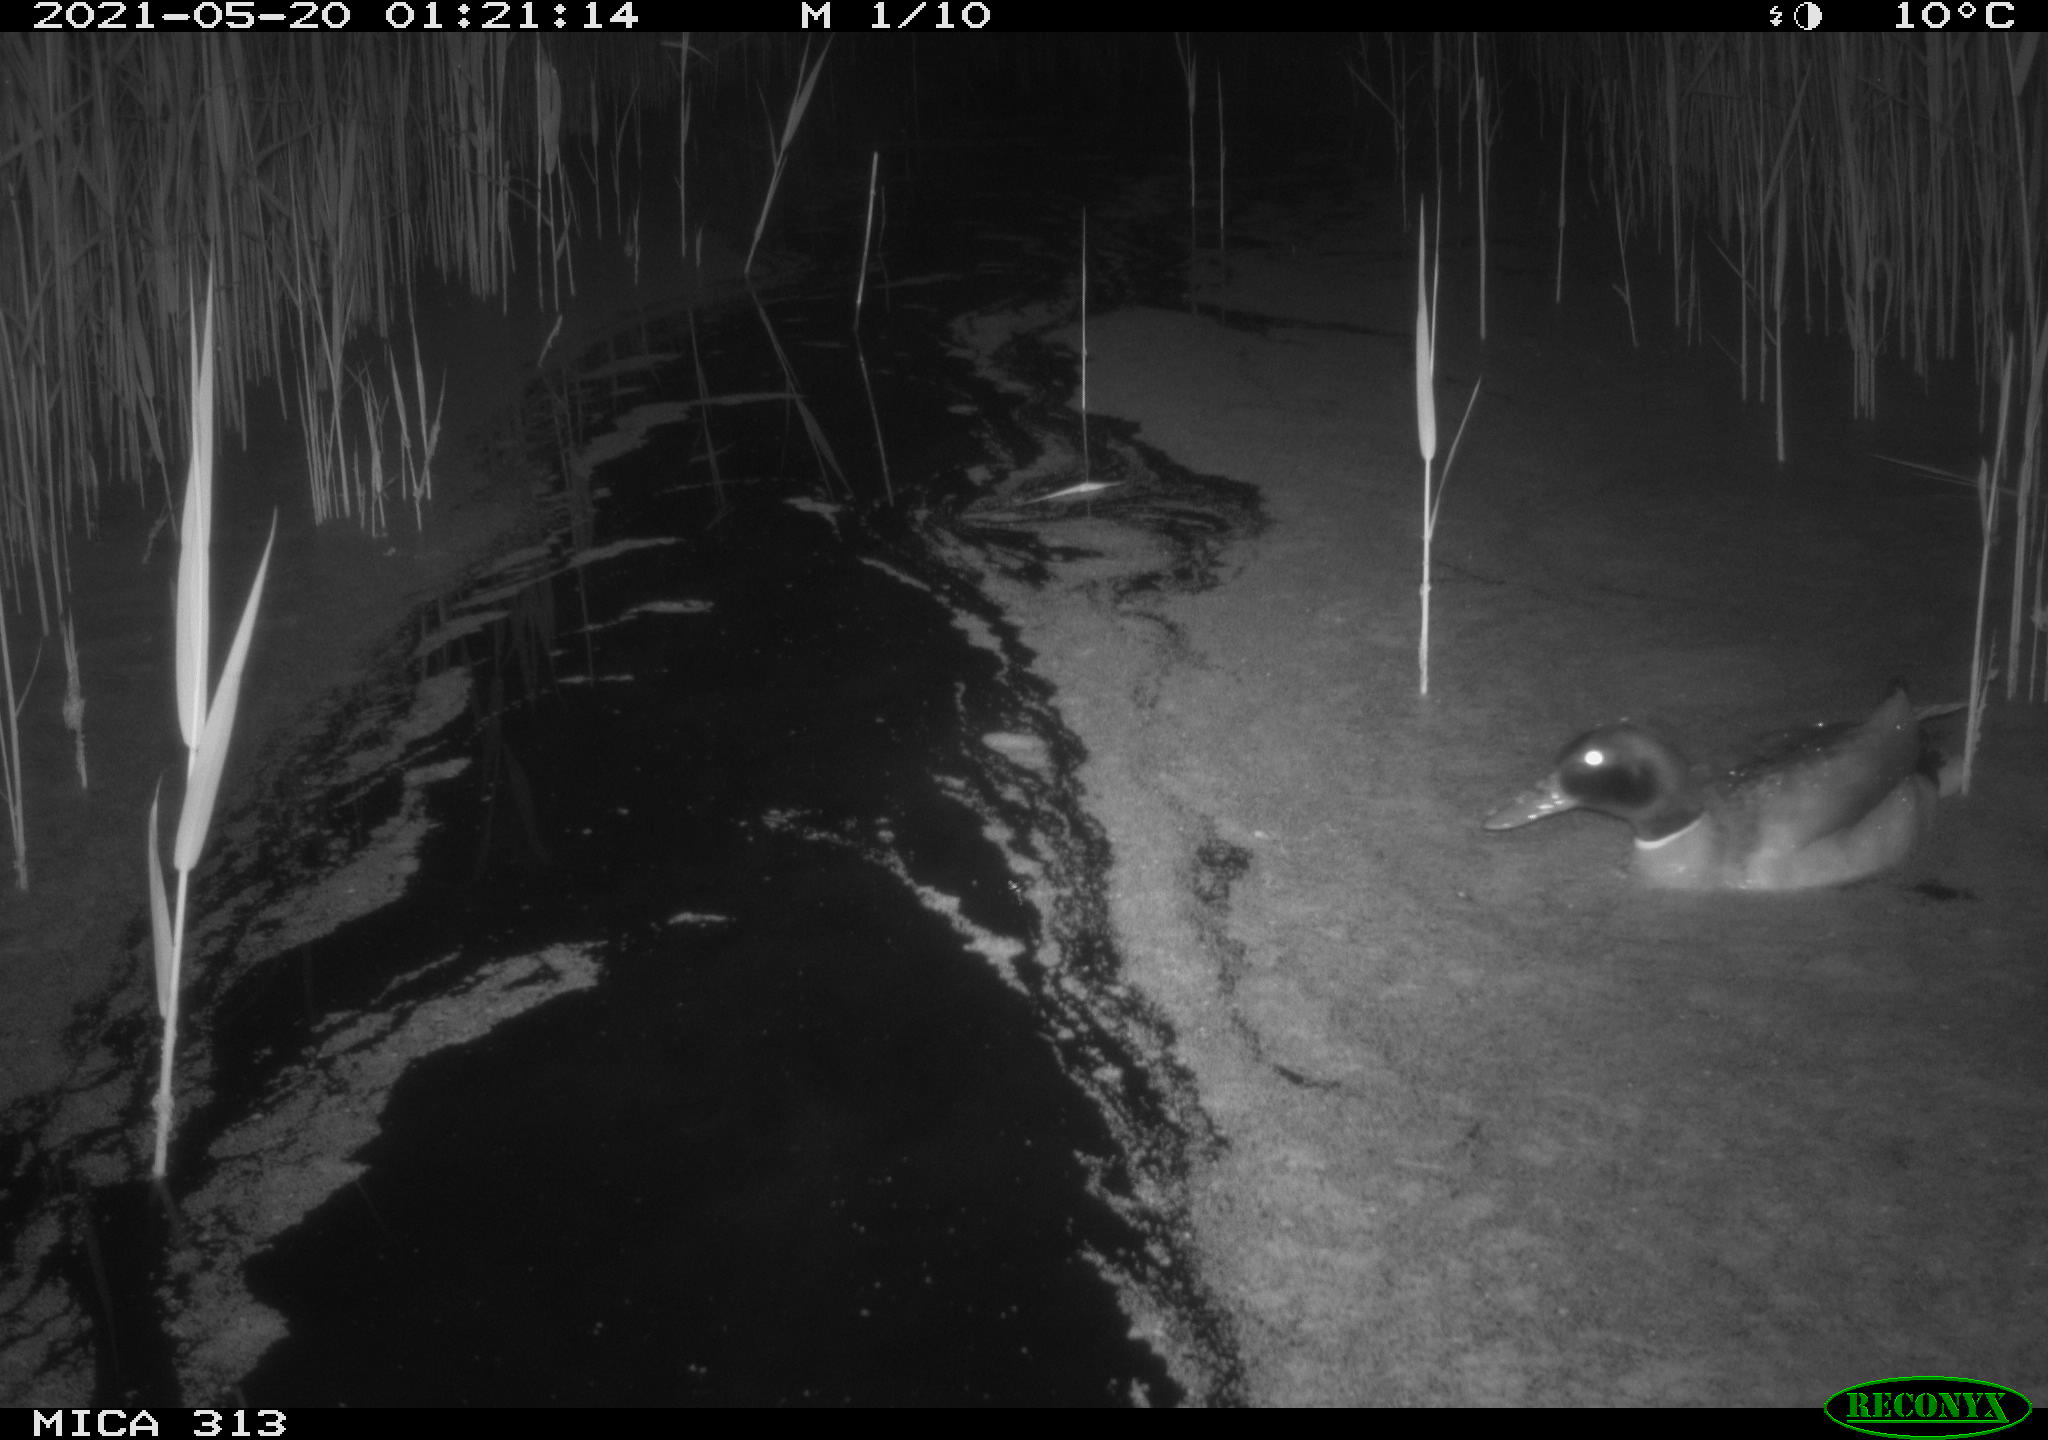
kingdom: Animalia
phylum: Chordata
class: Aves
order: Anseriformes
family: Anatidae
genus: Anas
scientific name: Anas platyrhynchos
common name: Mallard
